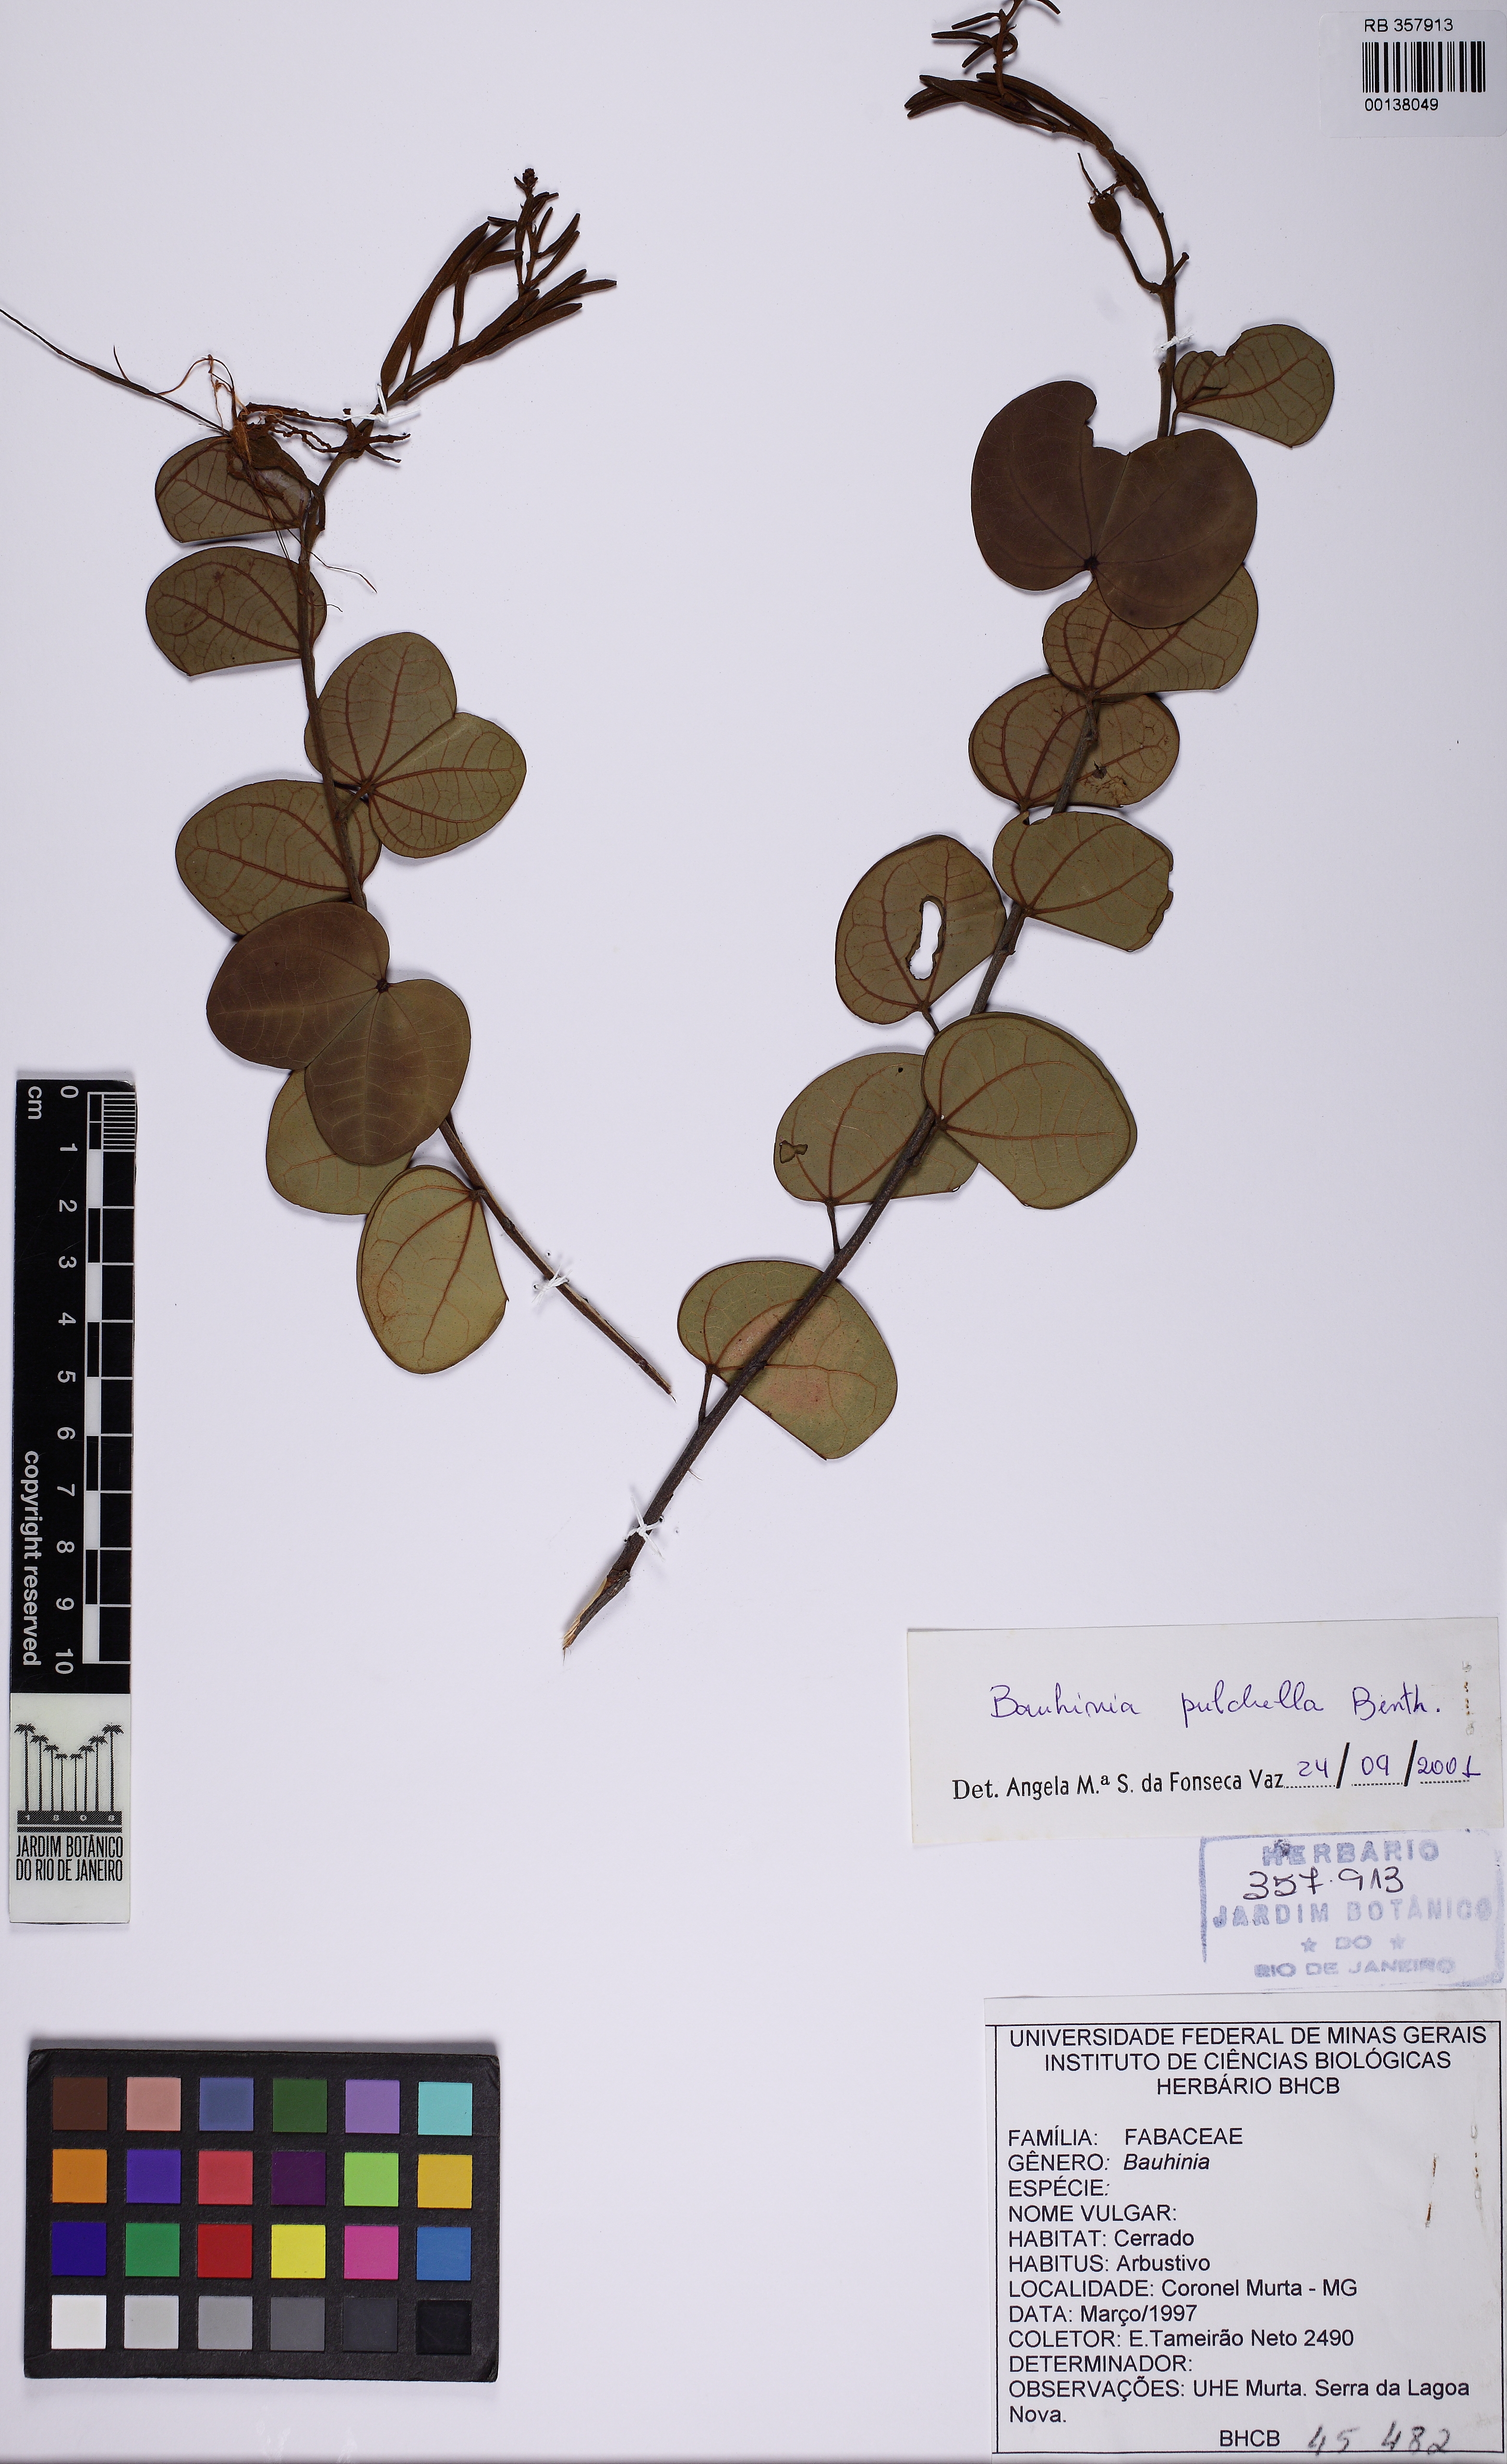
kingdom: Plantae
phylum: Tracheophyta
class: Magnoliopsida
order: Fabales
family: Fabaceae
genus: Bauhinia
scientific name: Bauhinia pulchella
